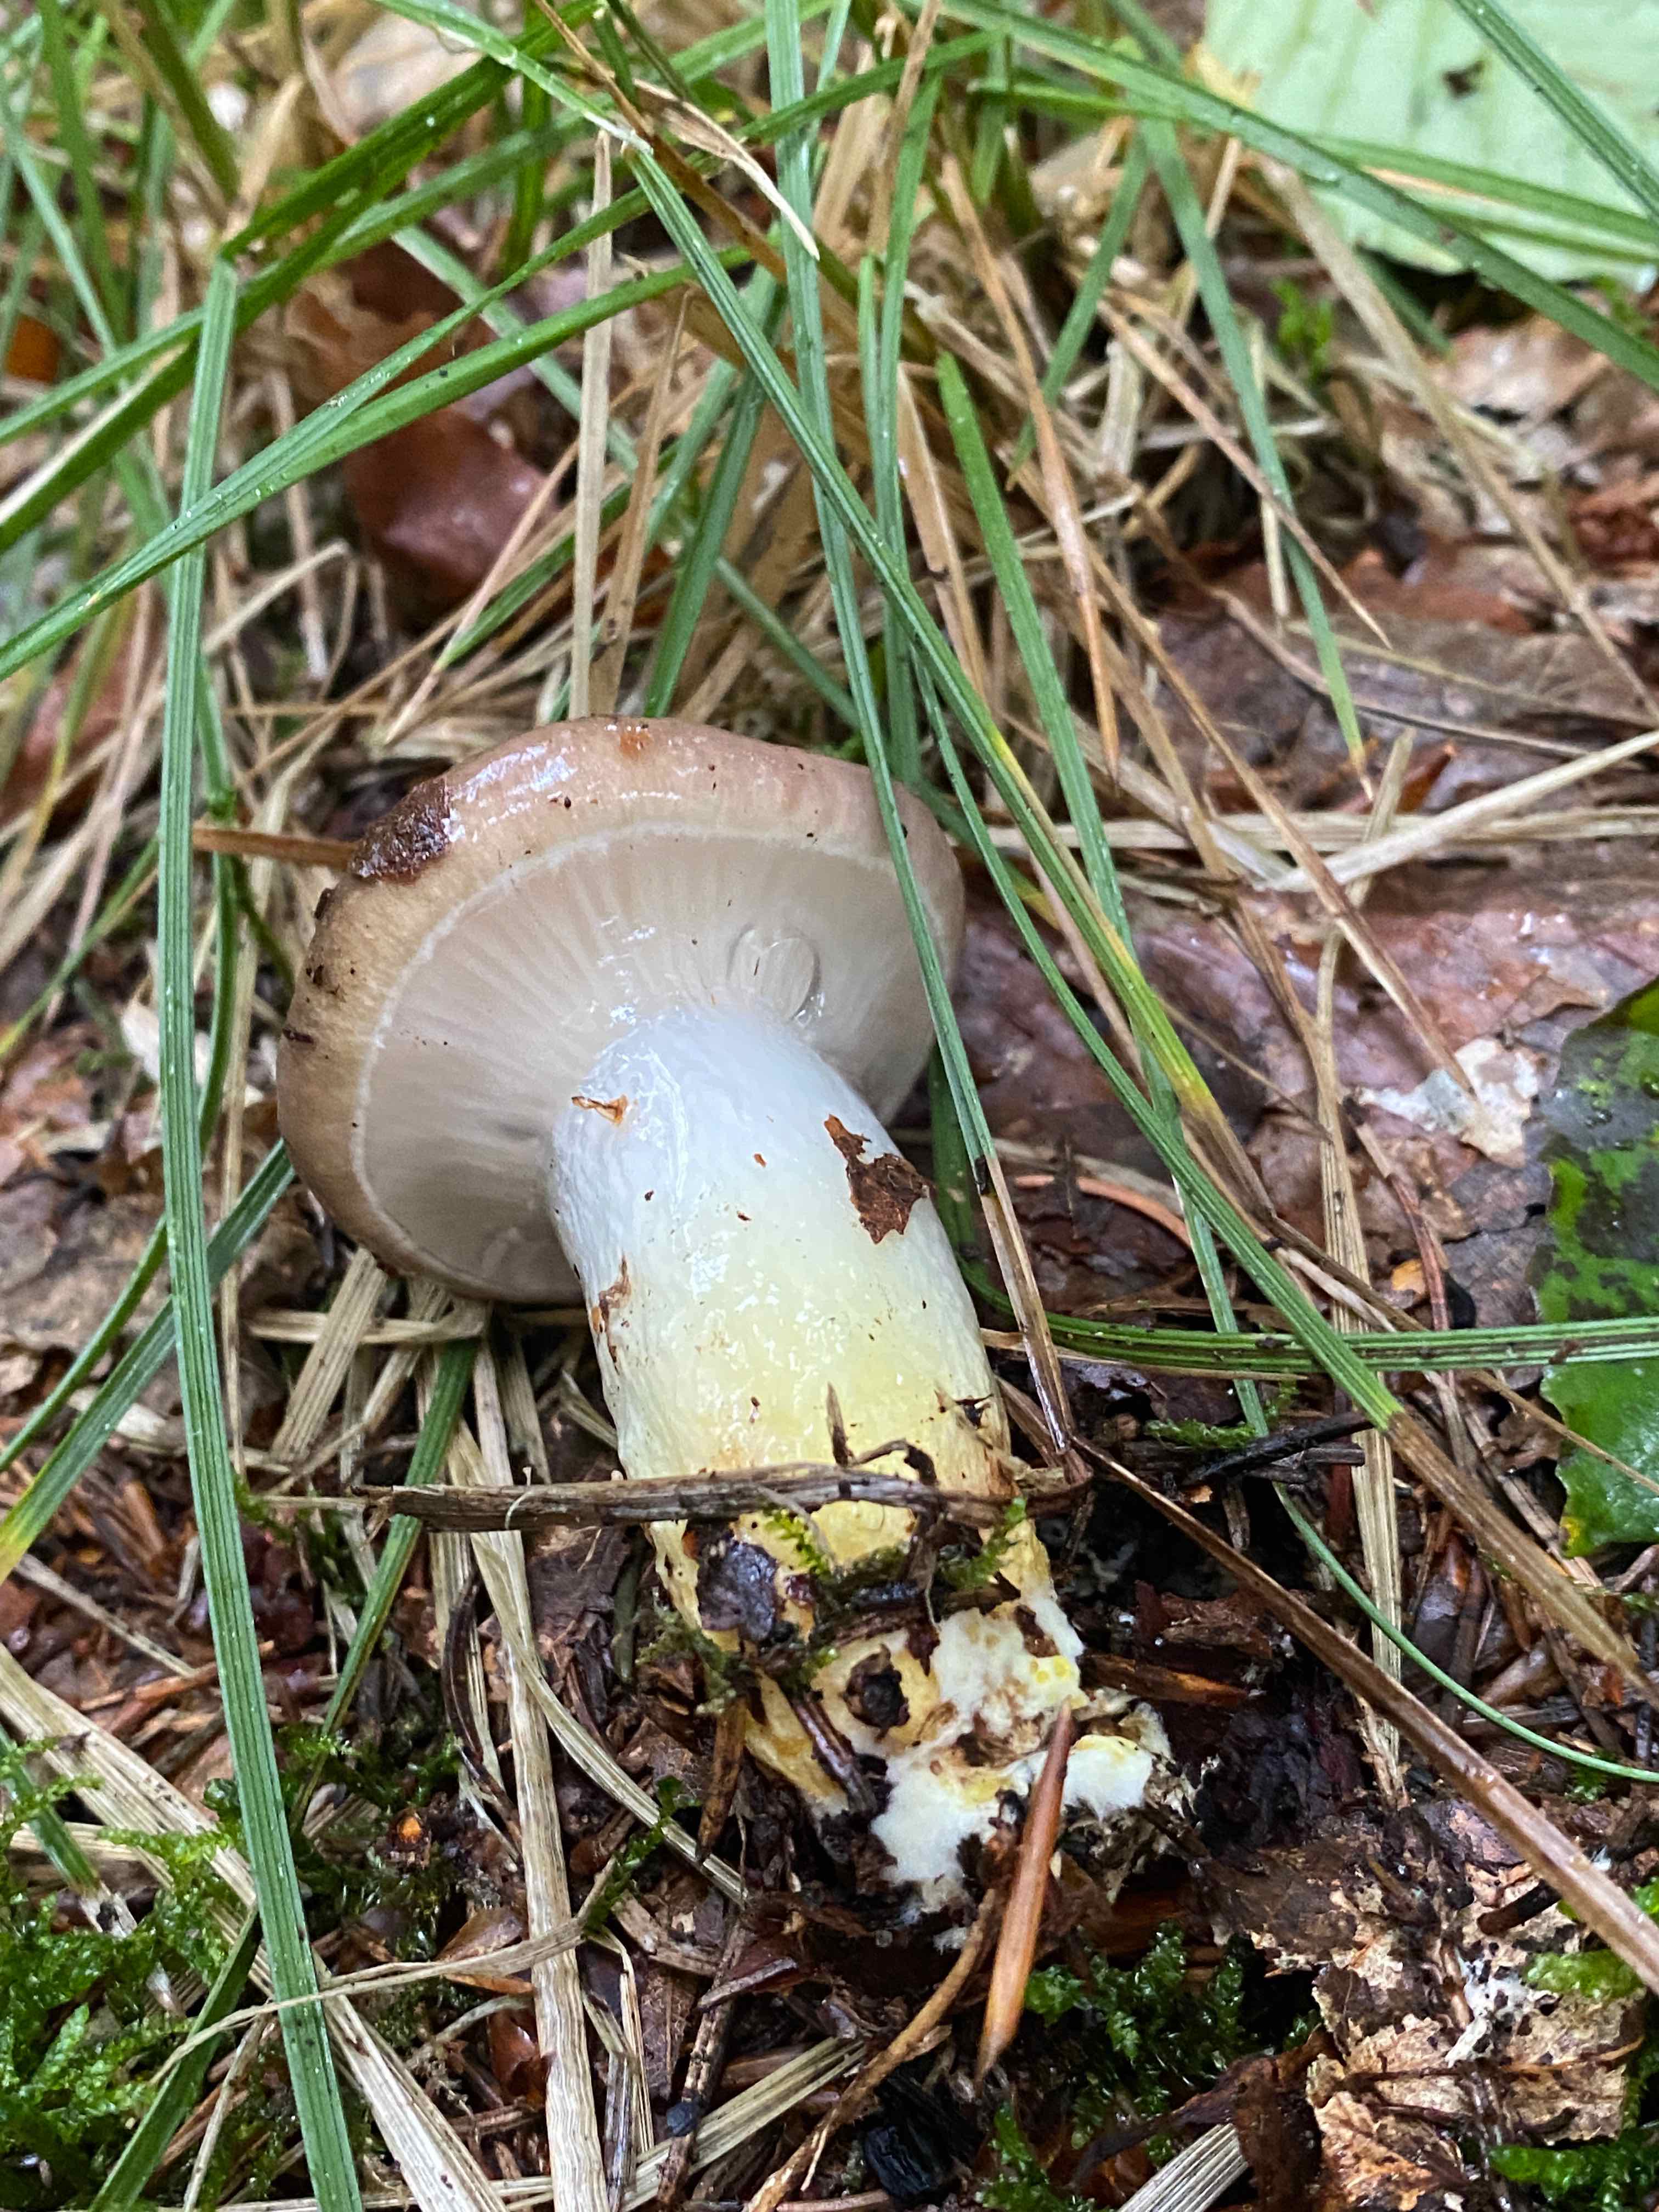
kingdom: Fungi
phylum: Basidiomycota
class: Agaricomycetes
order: Boletales
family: Gomphidiaceae
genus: Gomphidius
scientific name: Gomphidius glutinosus
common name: grå slimslør
